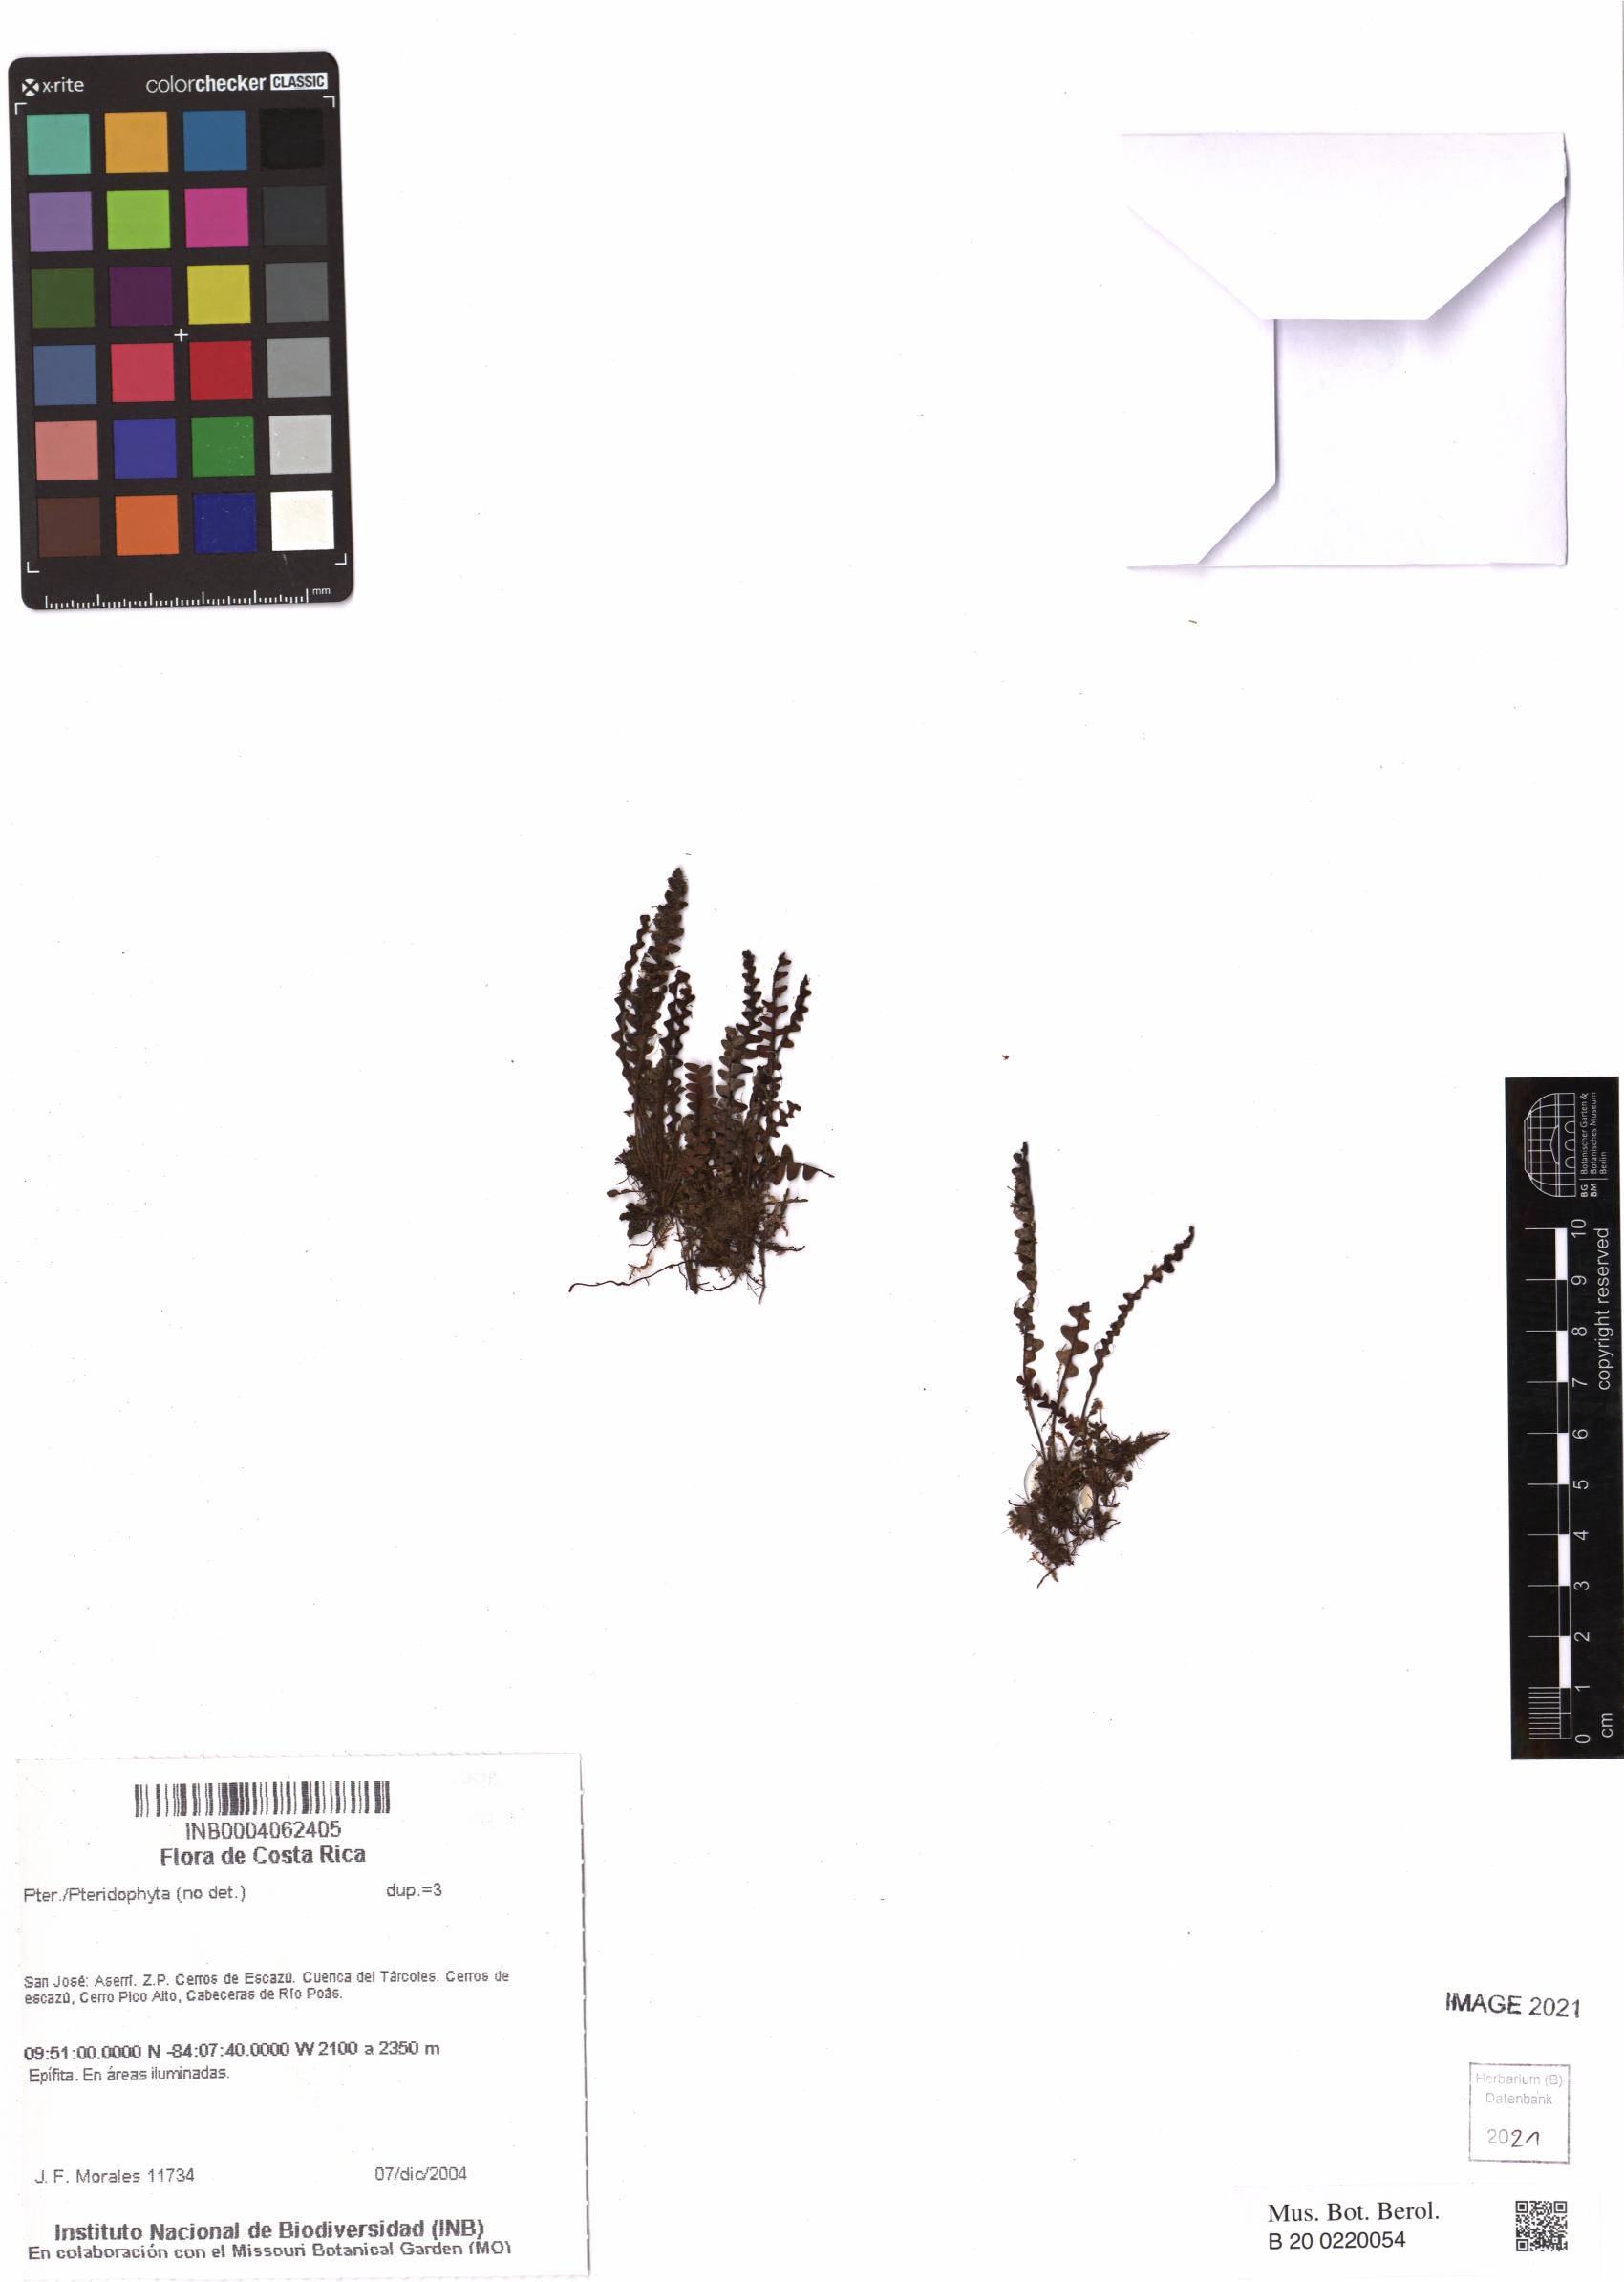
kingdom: Plantae
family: Pteridophyta
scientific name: Pteridophyta
